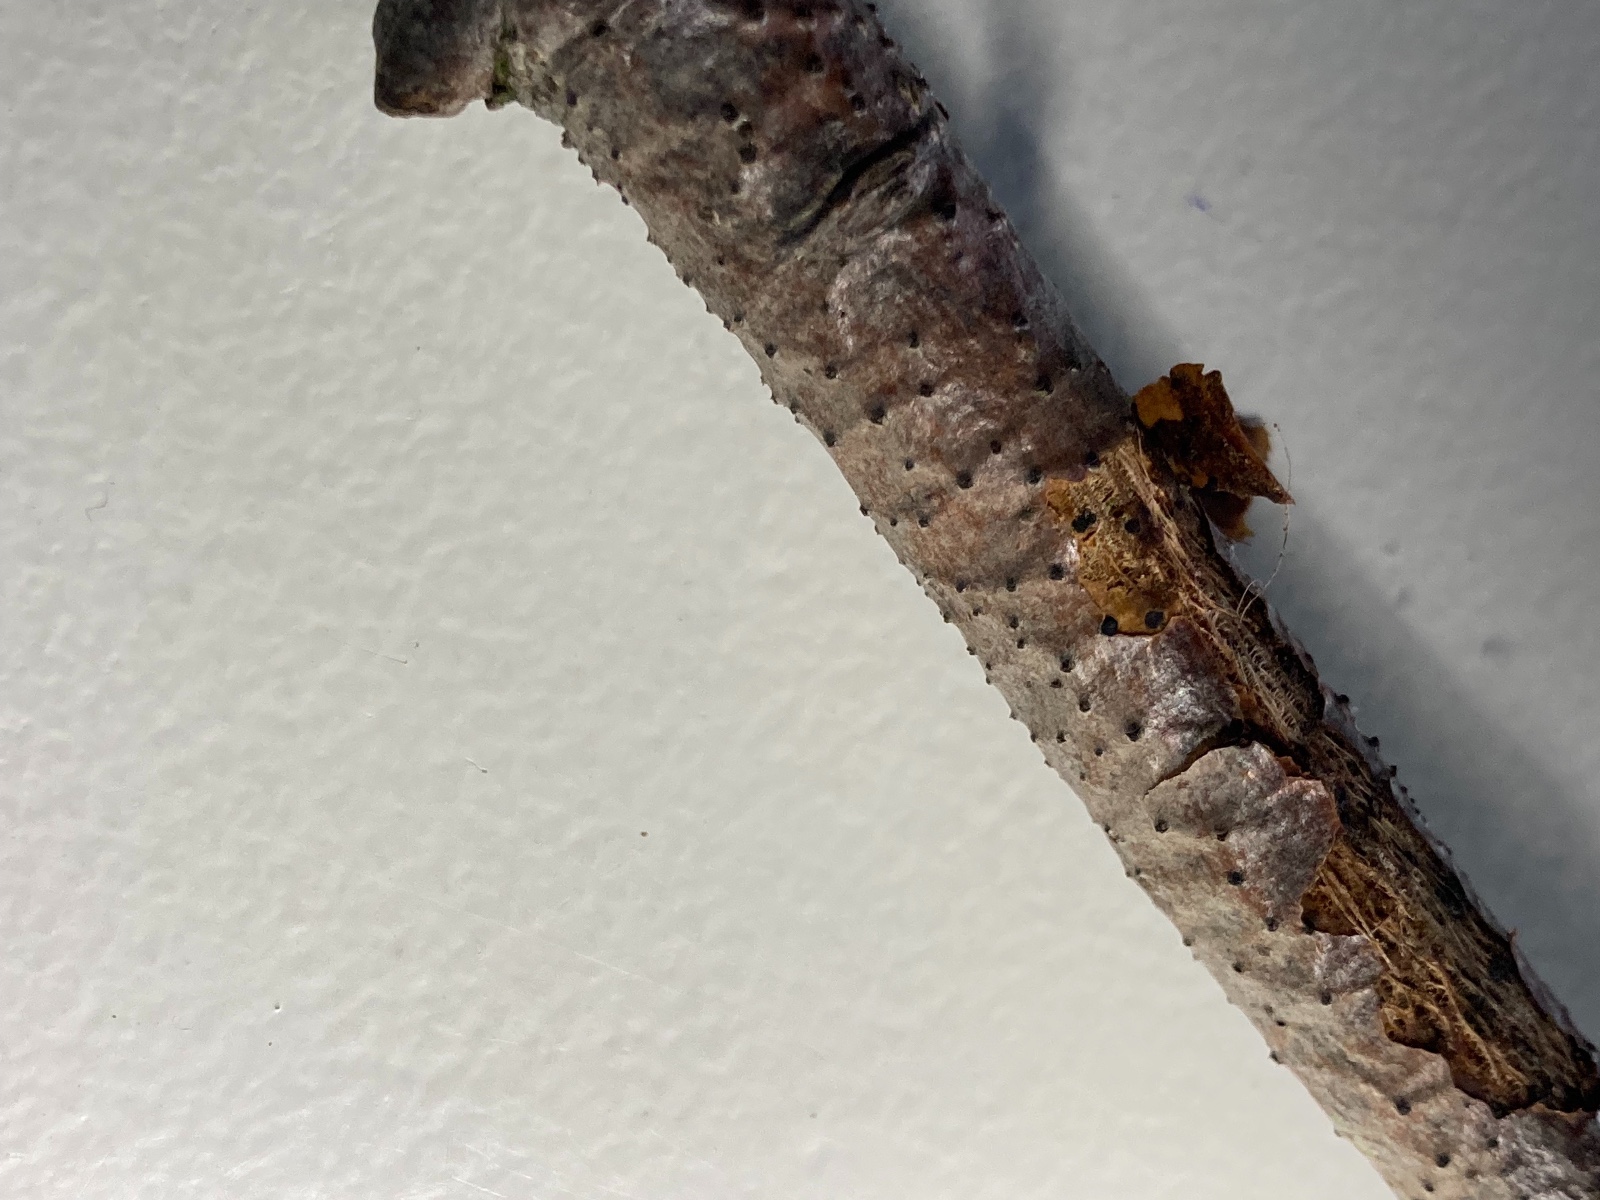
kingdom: Fungi
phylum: Ascomycota
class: Eurotiomycetes
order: Pyrenulales
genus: Splanchospora
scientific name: Splanchospora ampullacea
